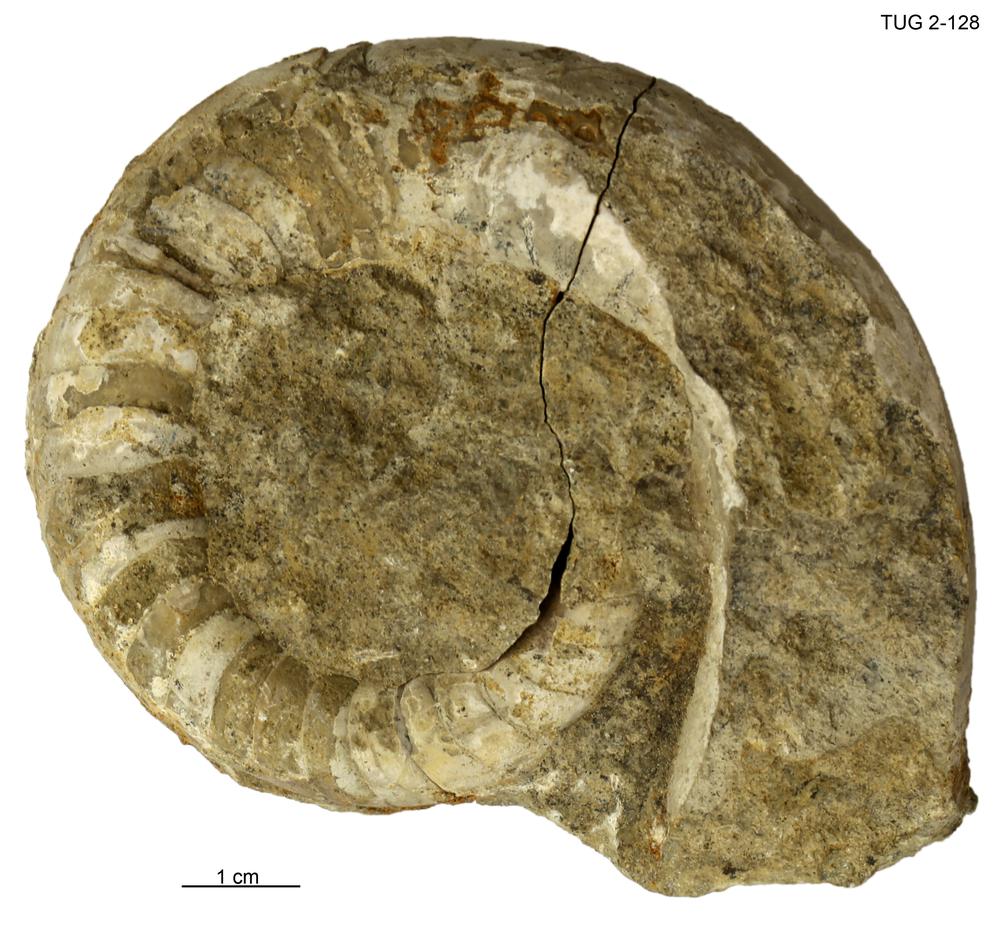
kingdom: Animalia
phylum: Mollusca
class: Cephalopoda
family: Estonioceratidae
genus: Estonioceras
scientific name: Estonioceras
